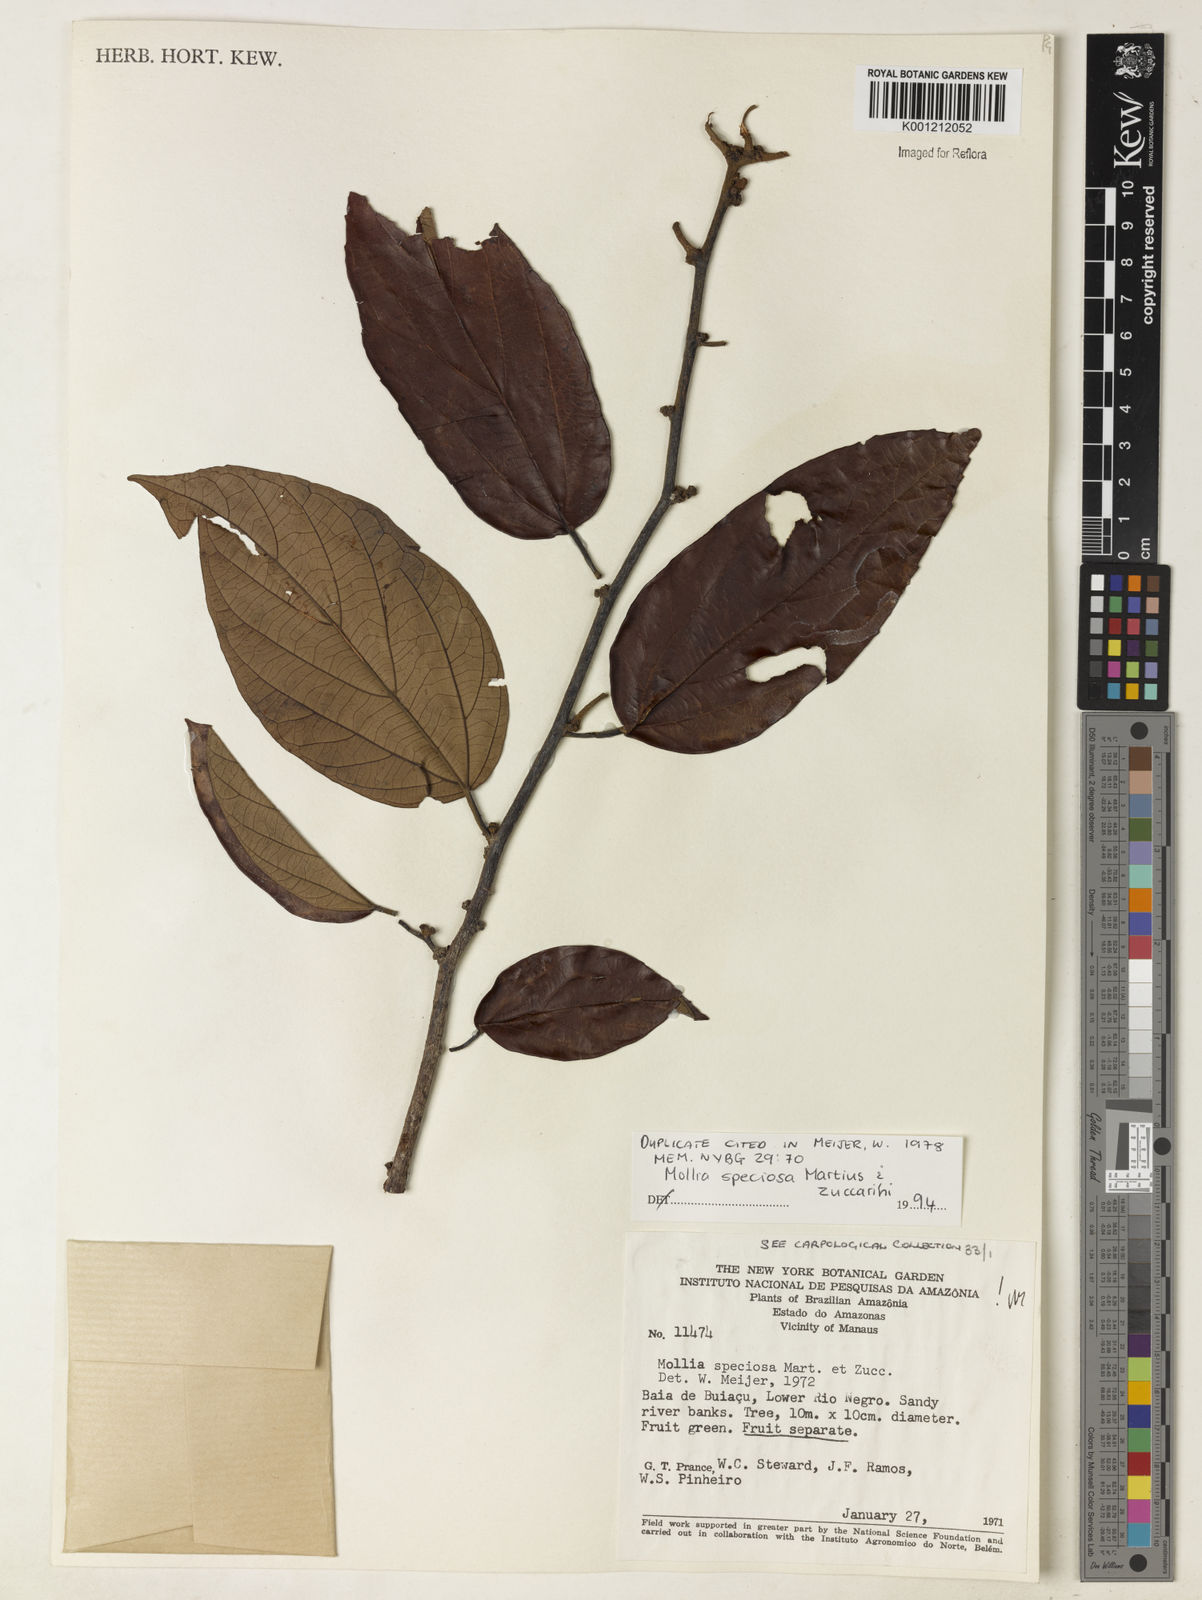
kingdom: Plantae
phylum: Tracheophyta
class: Magnoliopsida
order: Malvales
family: Malvaceae
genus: Mollia
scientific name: Mollia speciosa
